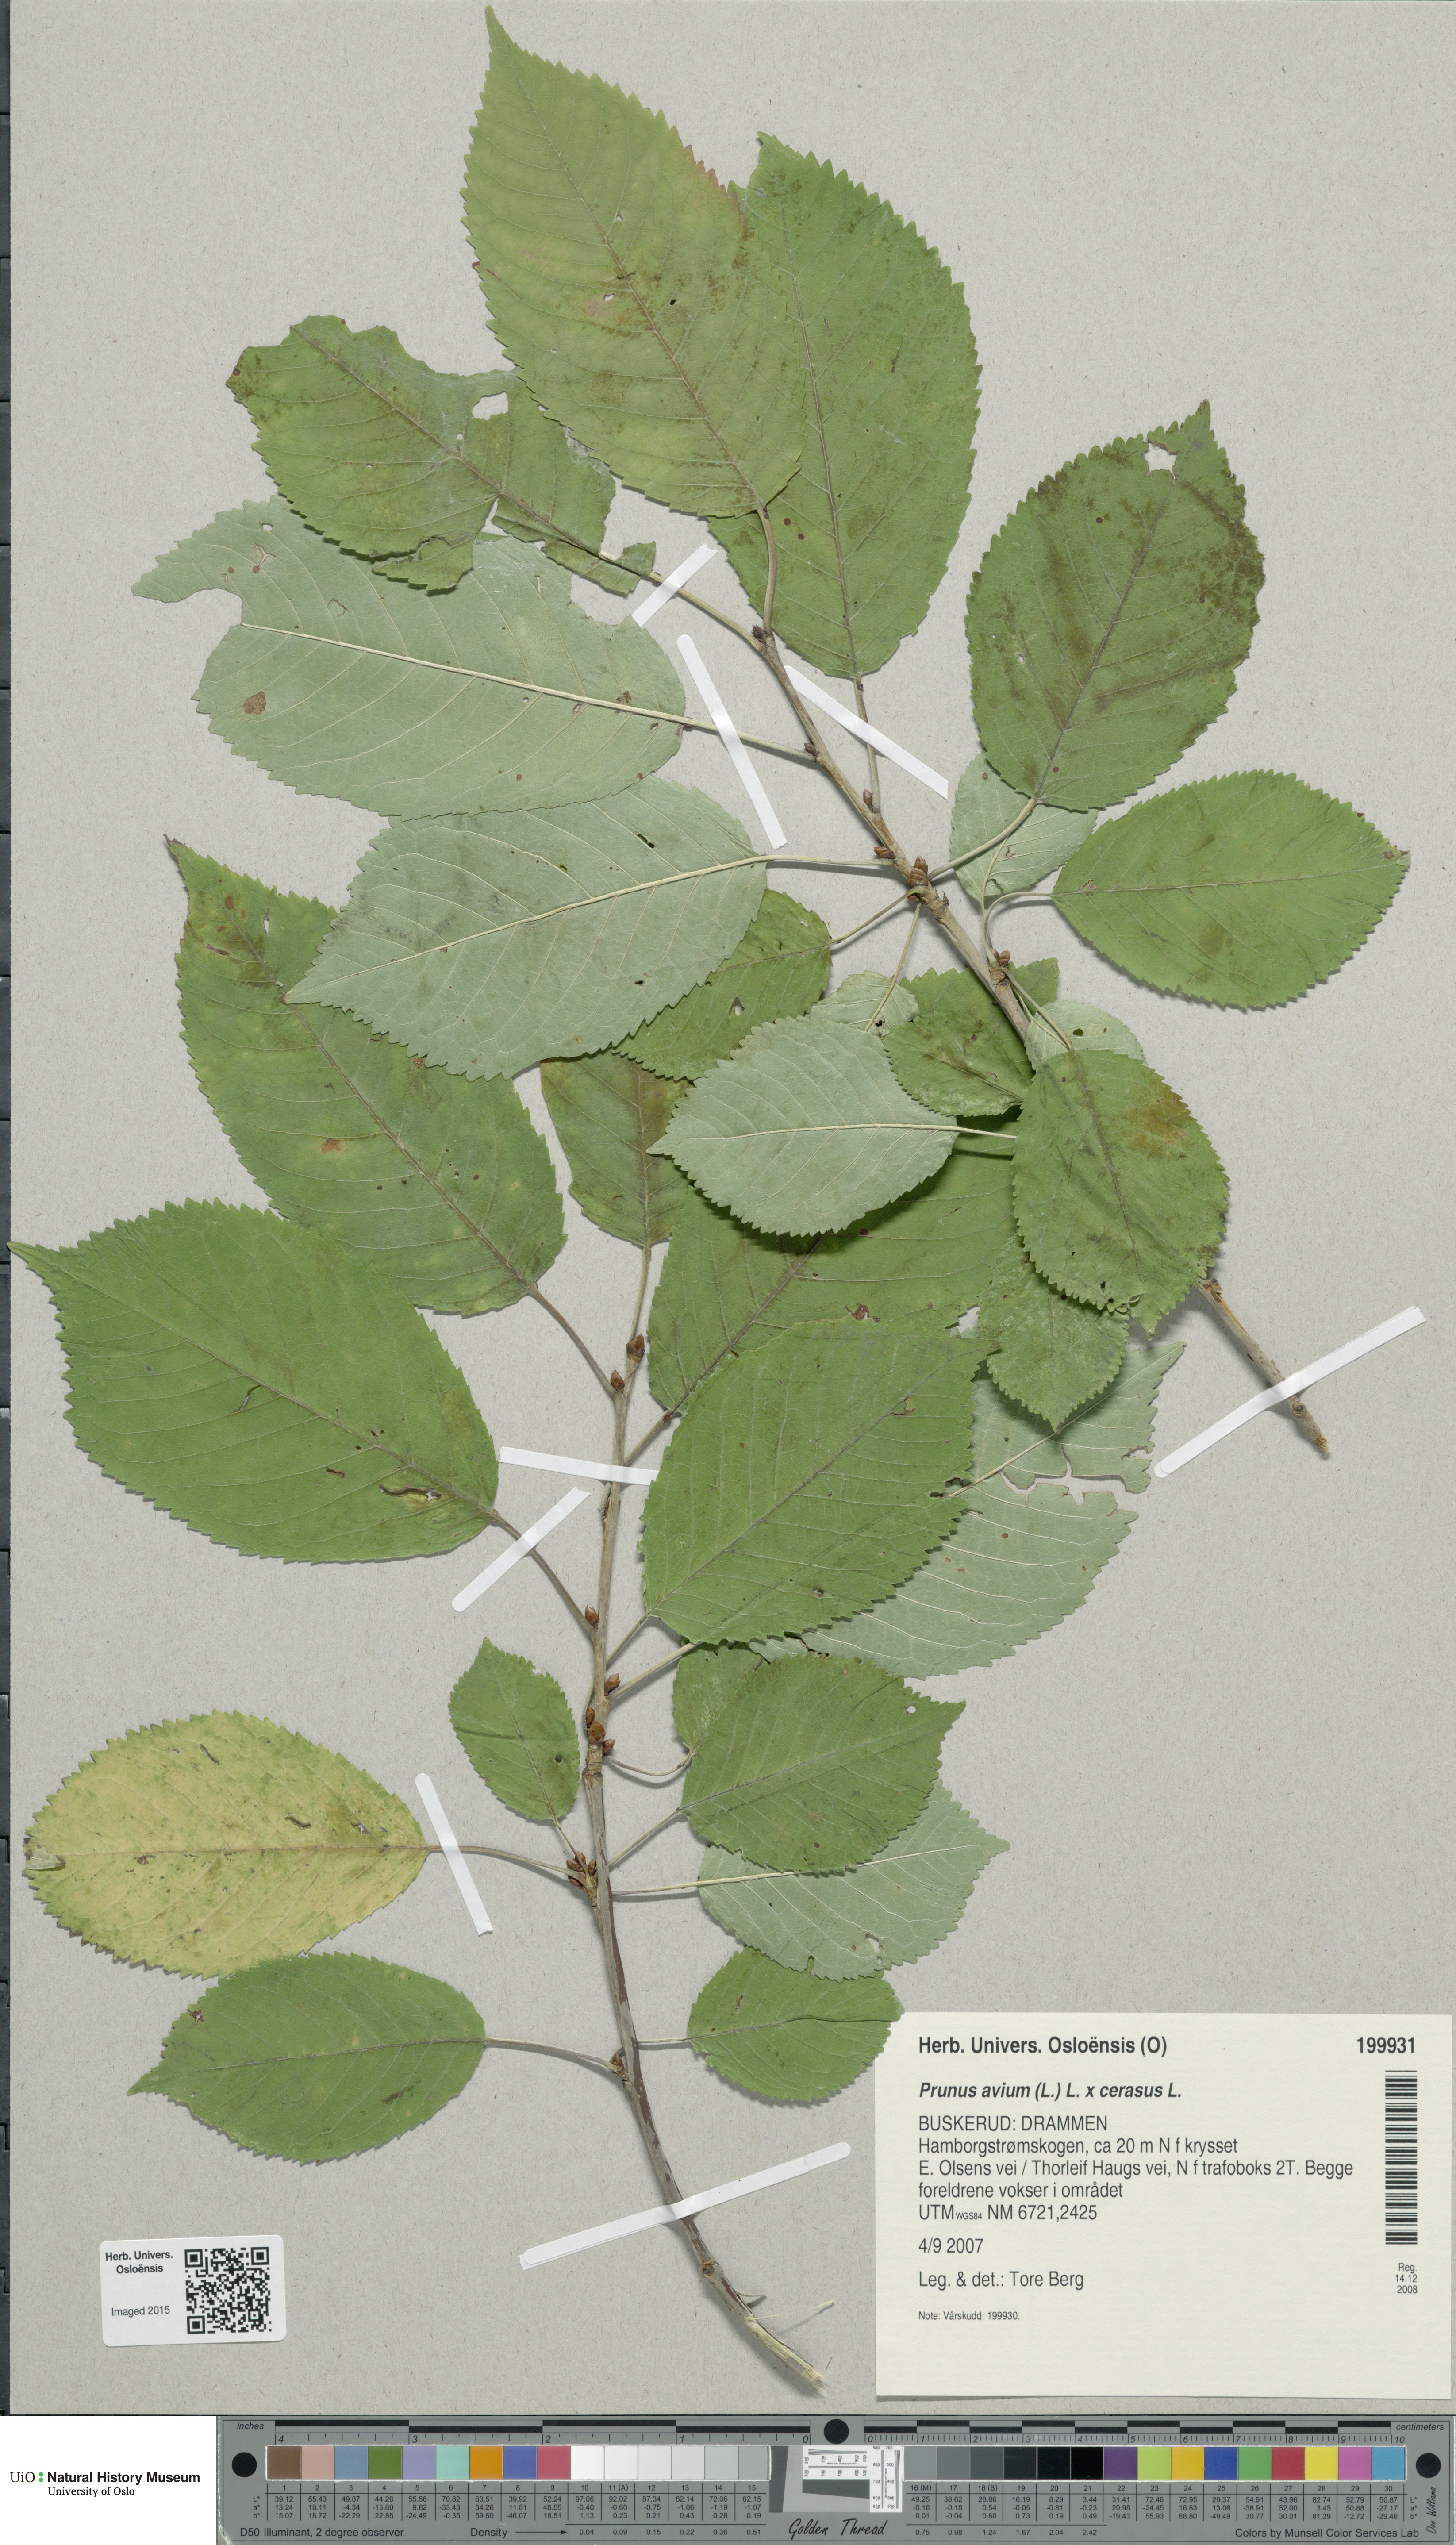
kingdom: Plantae
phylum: Tracheophyta
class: Magnoliopsida
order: Rosales
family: Rosaceae
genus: Prunus
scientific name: Prunus
